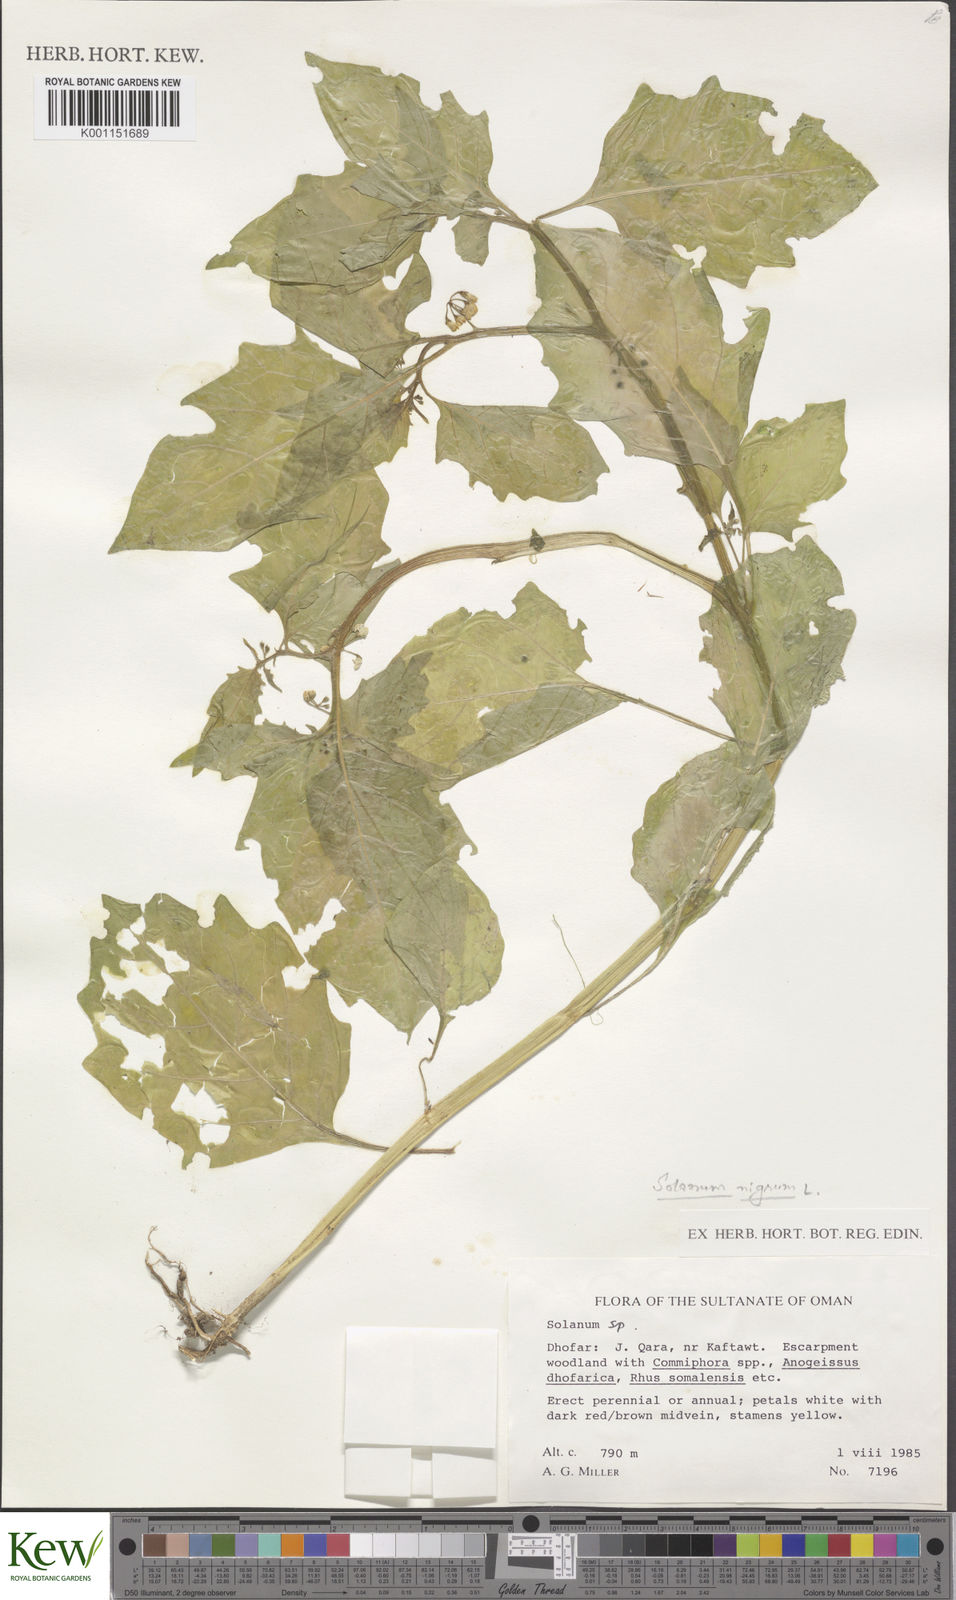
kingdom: Plantae
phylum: Tracheophyta
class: Magnoliopsida
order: Solanales
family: Solanaceae
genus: Solanum
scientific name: Solanum nigrum
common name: Black nightshade
